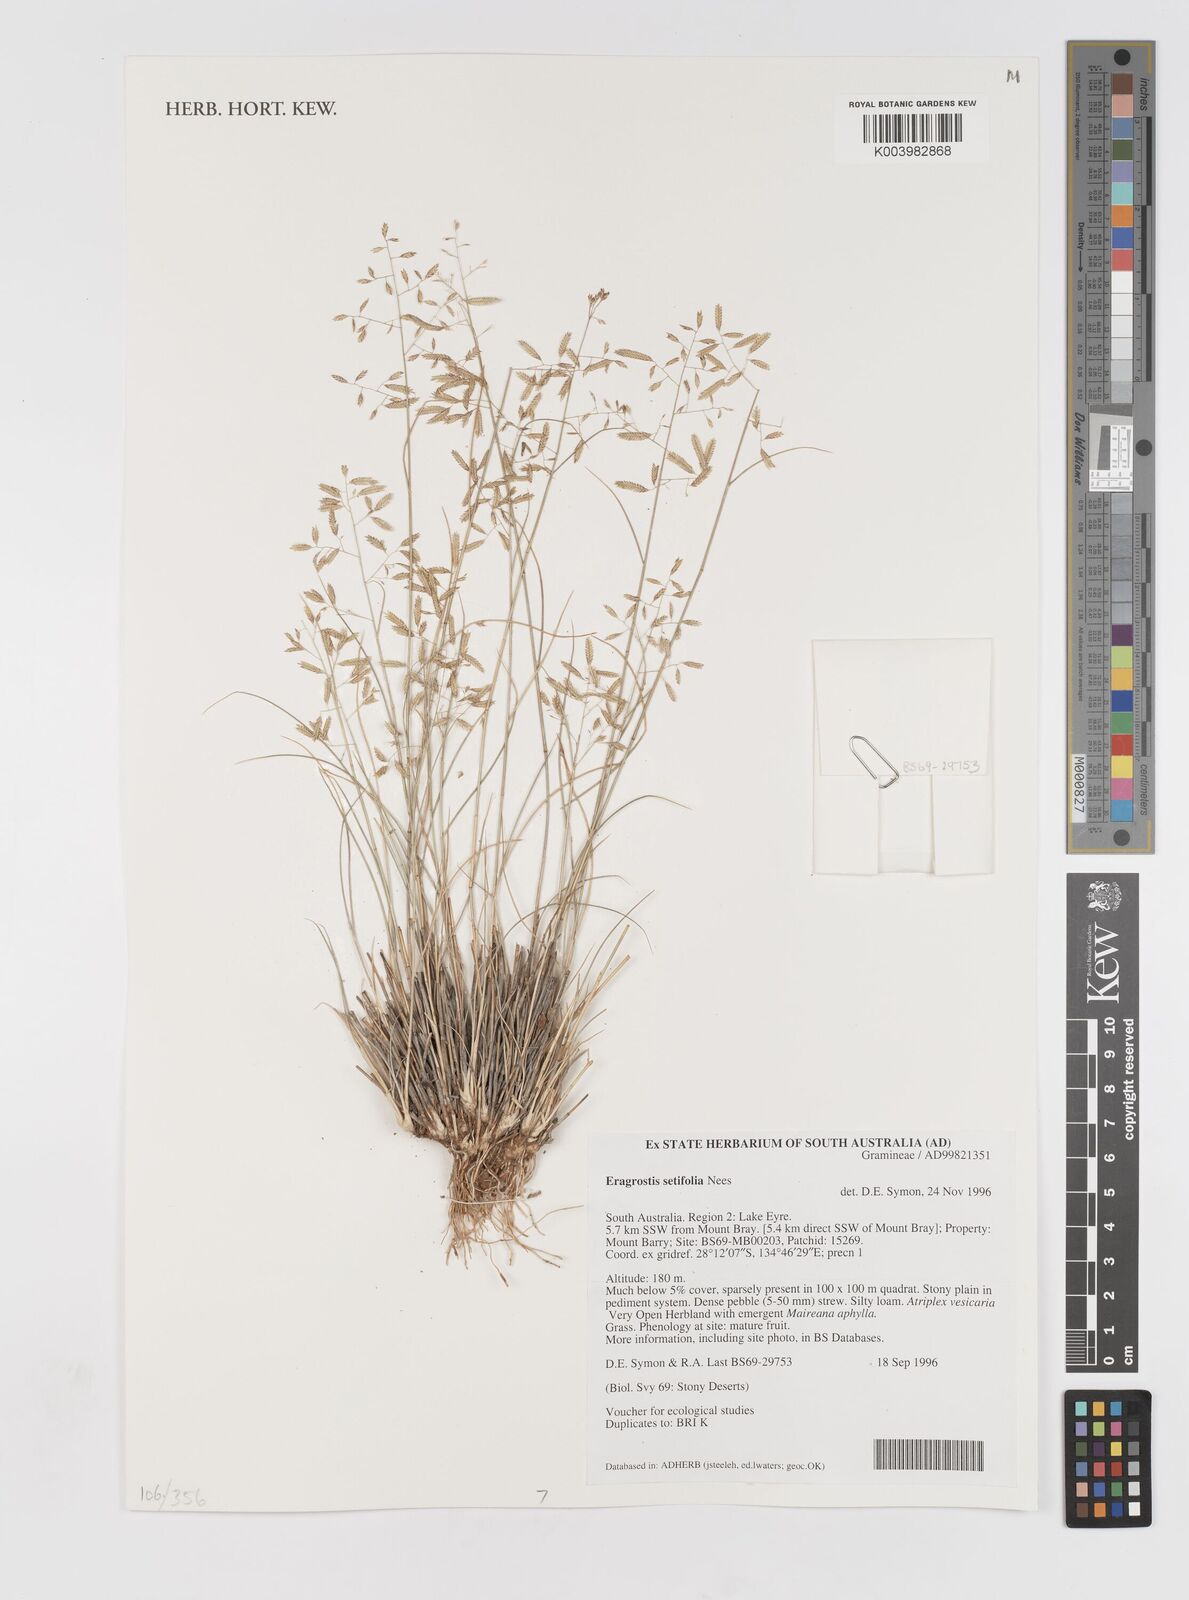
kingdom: Plantae
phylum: Tracheophyta
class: Liliopsida
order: Poales
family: Poaceae
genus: Eragrostis
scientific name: Eragrostis setifolia
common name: Bristleleaf lovegrass
